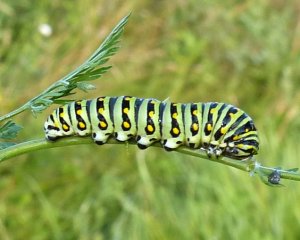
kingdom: Animalia
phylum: Arthropoda
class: Insecta
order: Lepidoptera
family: Papilionidae
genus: Papilio
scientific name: Papilio polyxenes
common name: Black Swallowtail
